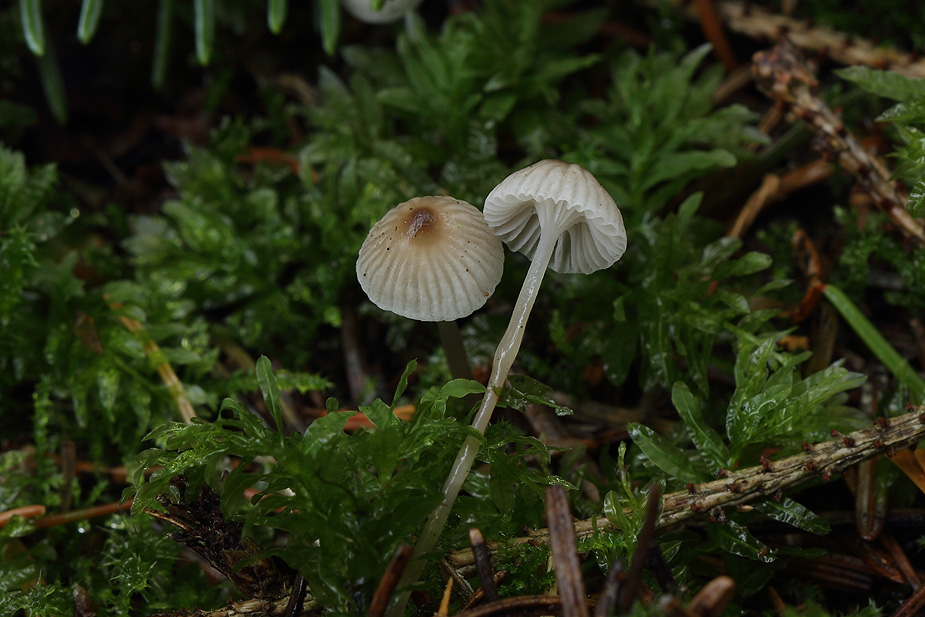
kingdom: Fungi
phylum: Basidiomycota
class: Agaricomycetes
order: Agaricales
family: Mycenaceae
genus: Mycena
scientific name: Mycena vulgaris
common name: klæbrig huesvamp
